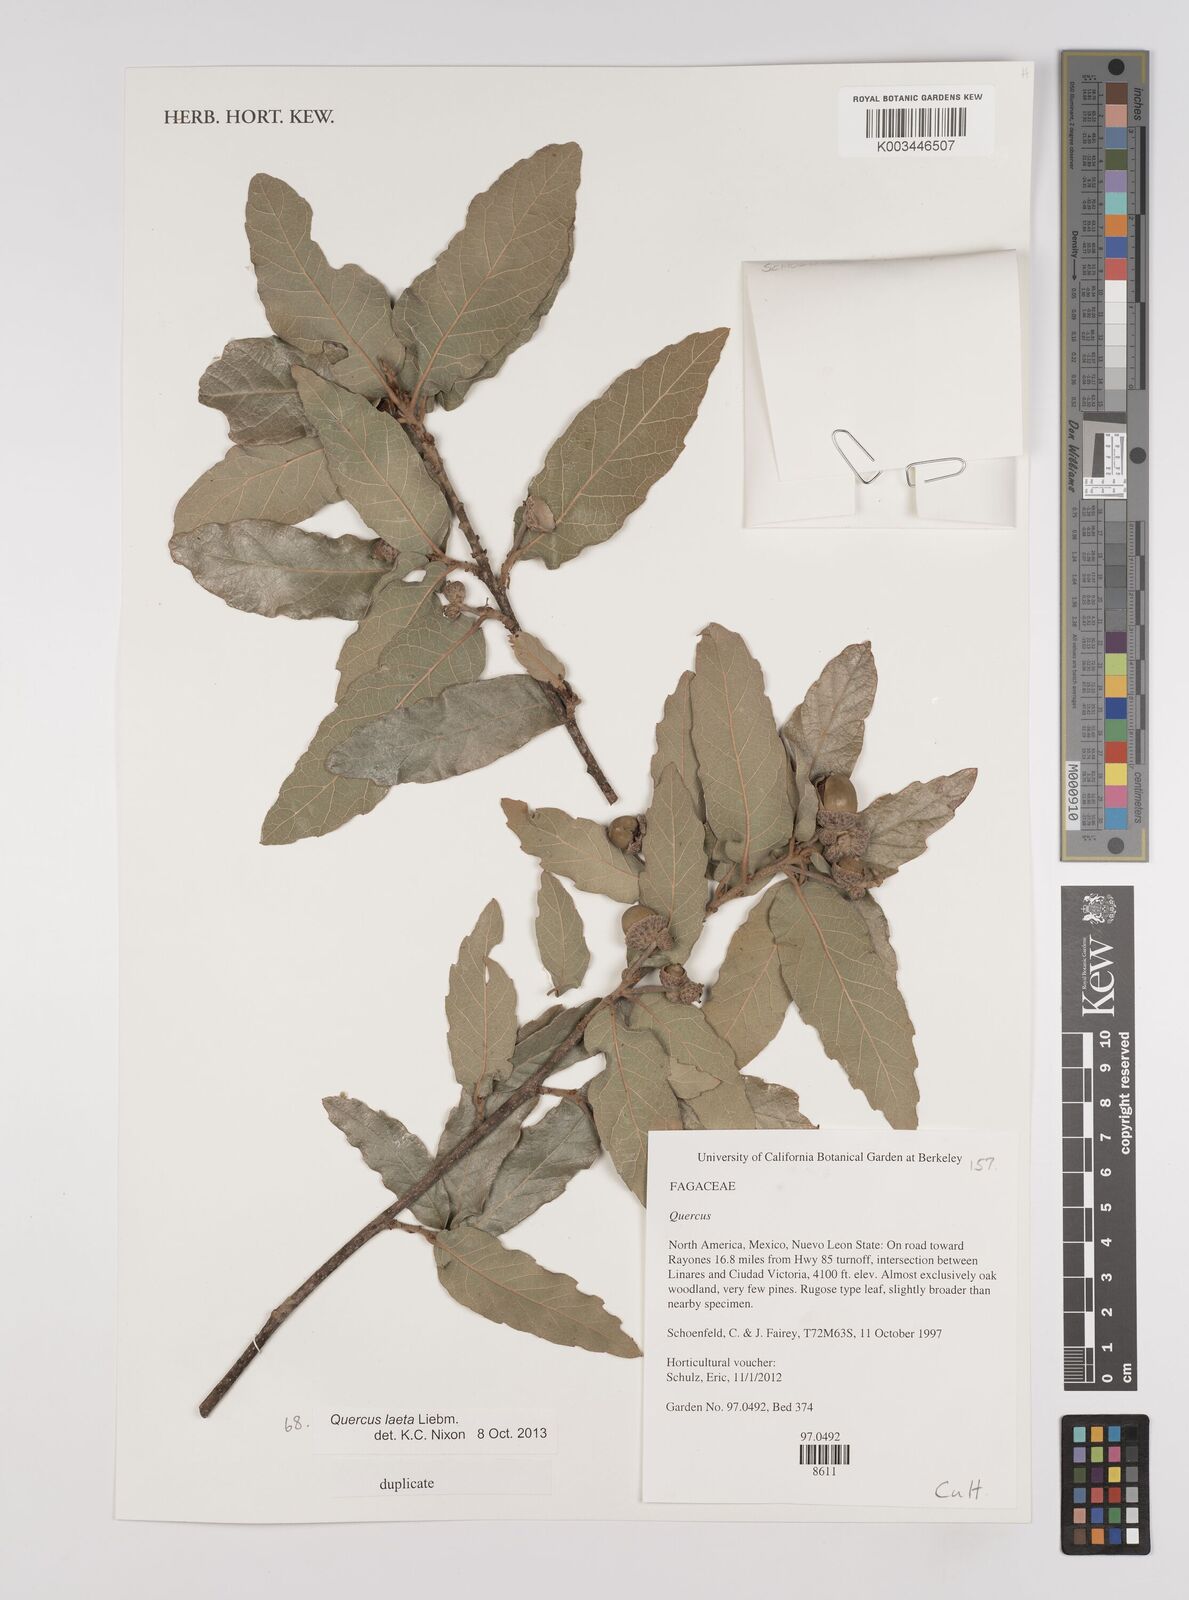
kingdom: Plantae
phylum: Tracheophyta
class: Magnoliopsida
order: Fagales
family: Fagaceae
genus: Quercus
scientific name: Quercus laeta
